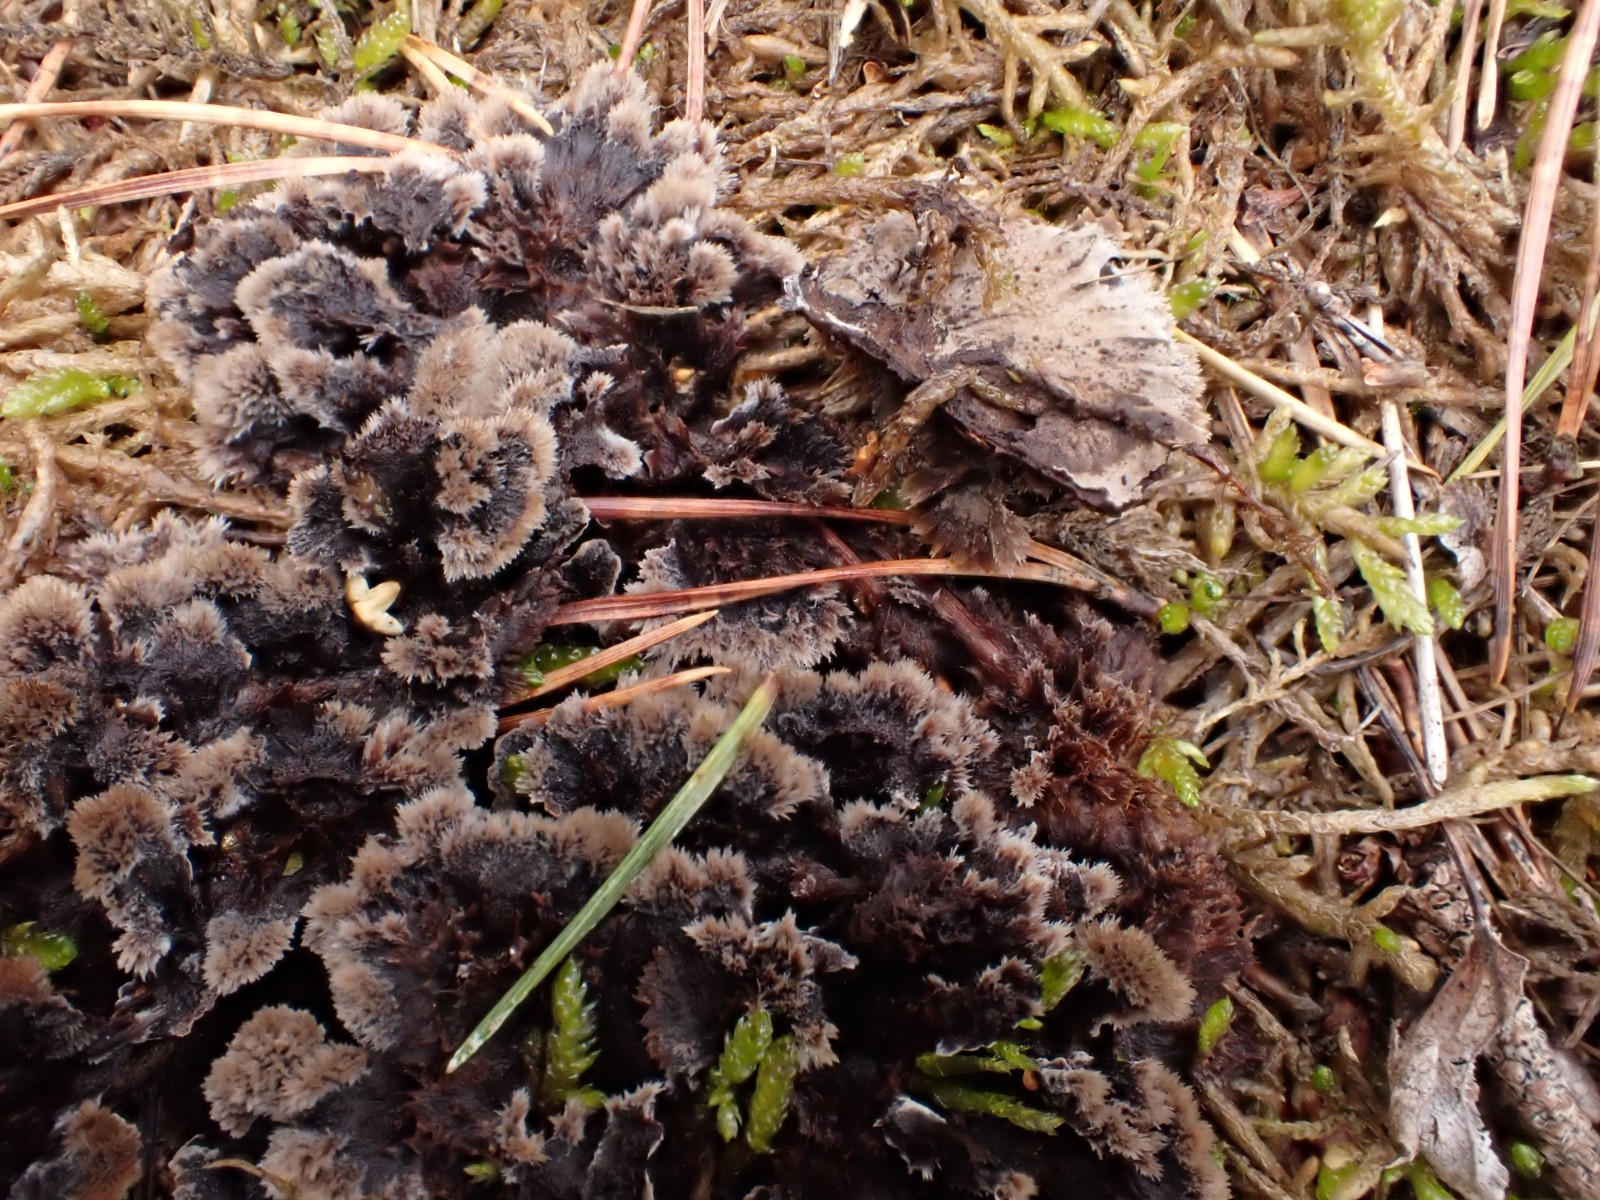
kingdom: Fungi
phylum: Basidiomycota
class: Agaricomycetes
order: Thelephorales
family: Thelephoraceae
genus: Thelephora
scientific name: Thelephora terrestris
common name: fliget frynsesvamp
